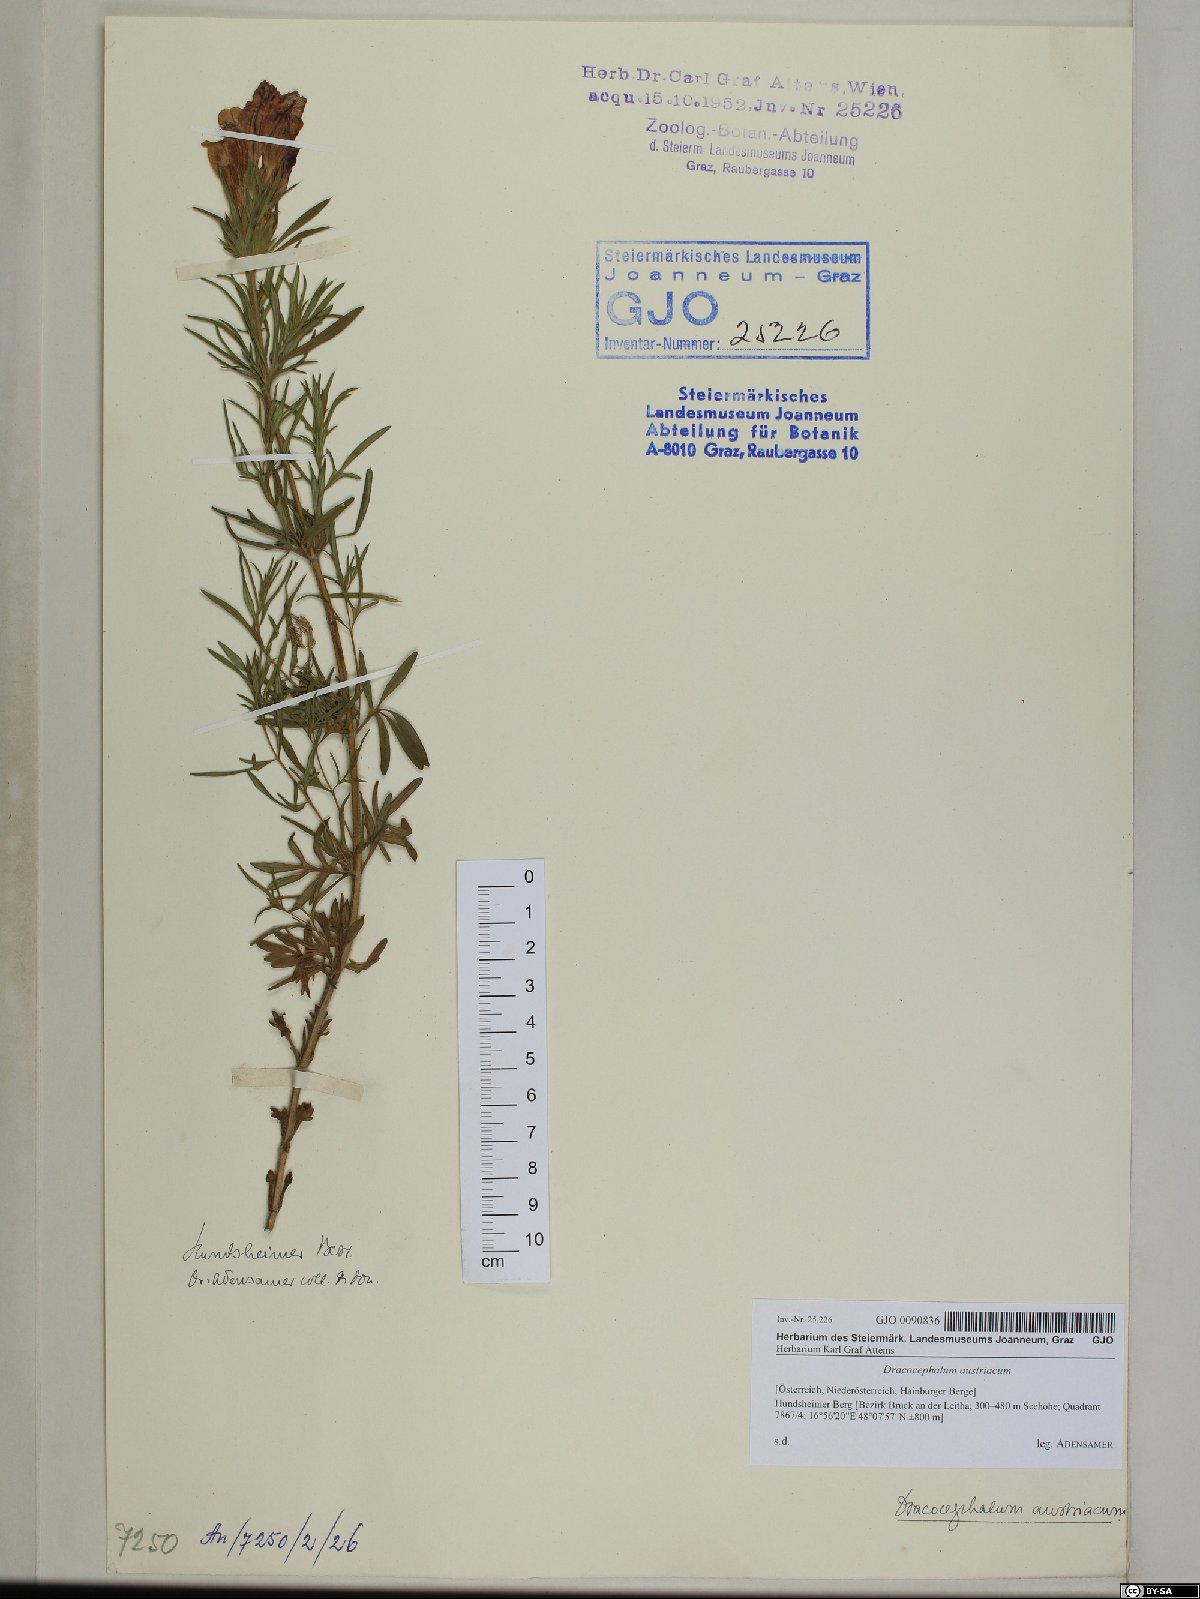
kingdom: Plantae
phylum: Tracheophyta
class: Magnoliopsida
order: Lamiales
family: Lamiaceae
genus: Dracocephalum
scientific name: Dracocephalum austriacum
